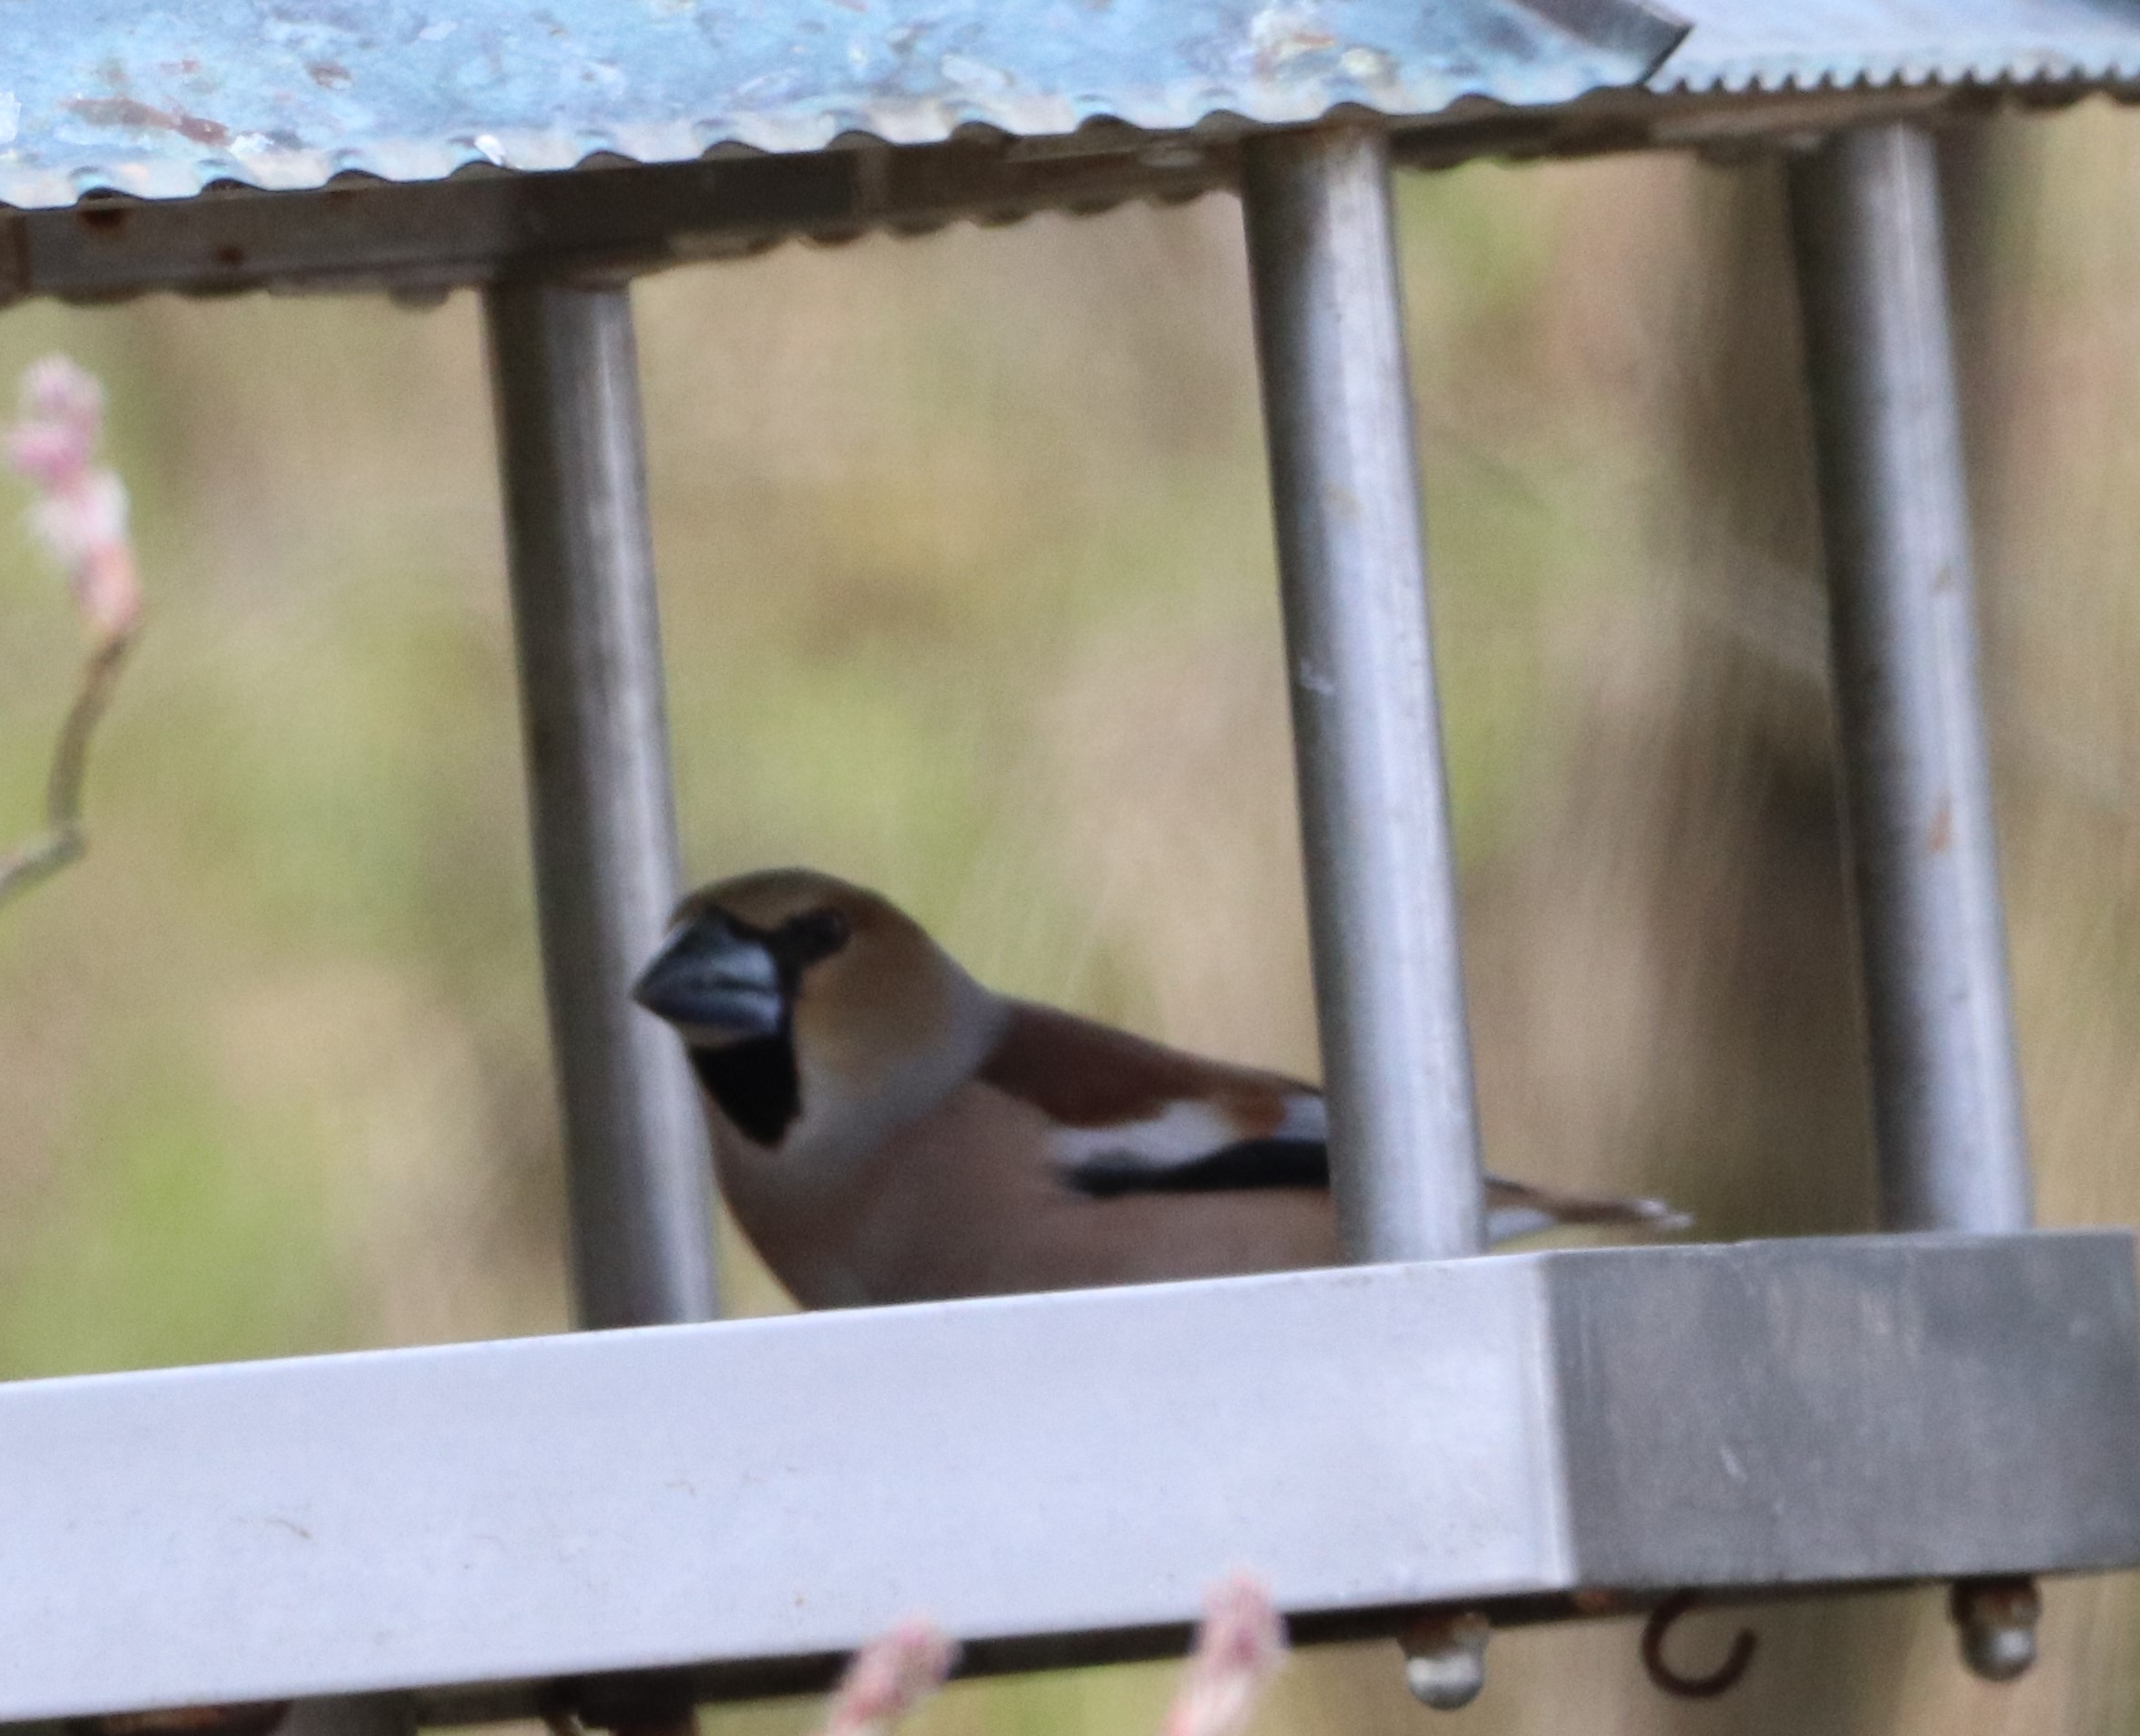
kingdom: Animalia
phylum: Chordata
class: Aves
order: Passeriformes
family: Fringillidae
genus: Coccothraustes
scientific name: Coccothraustes coccothraustes
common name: Kernebider
